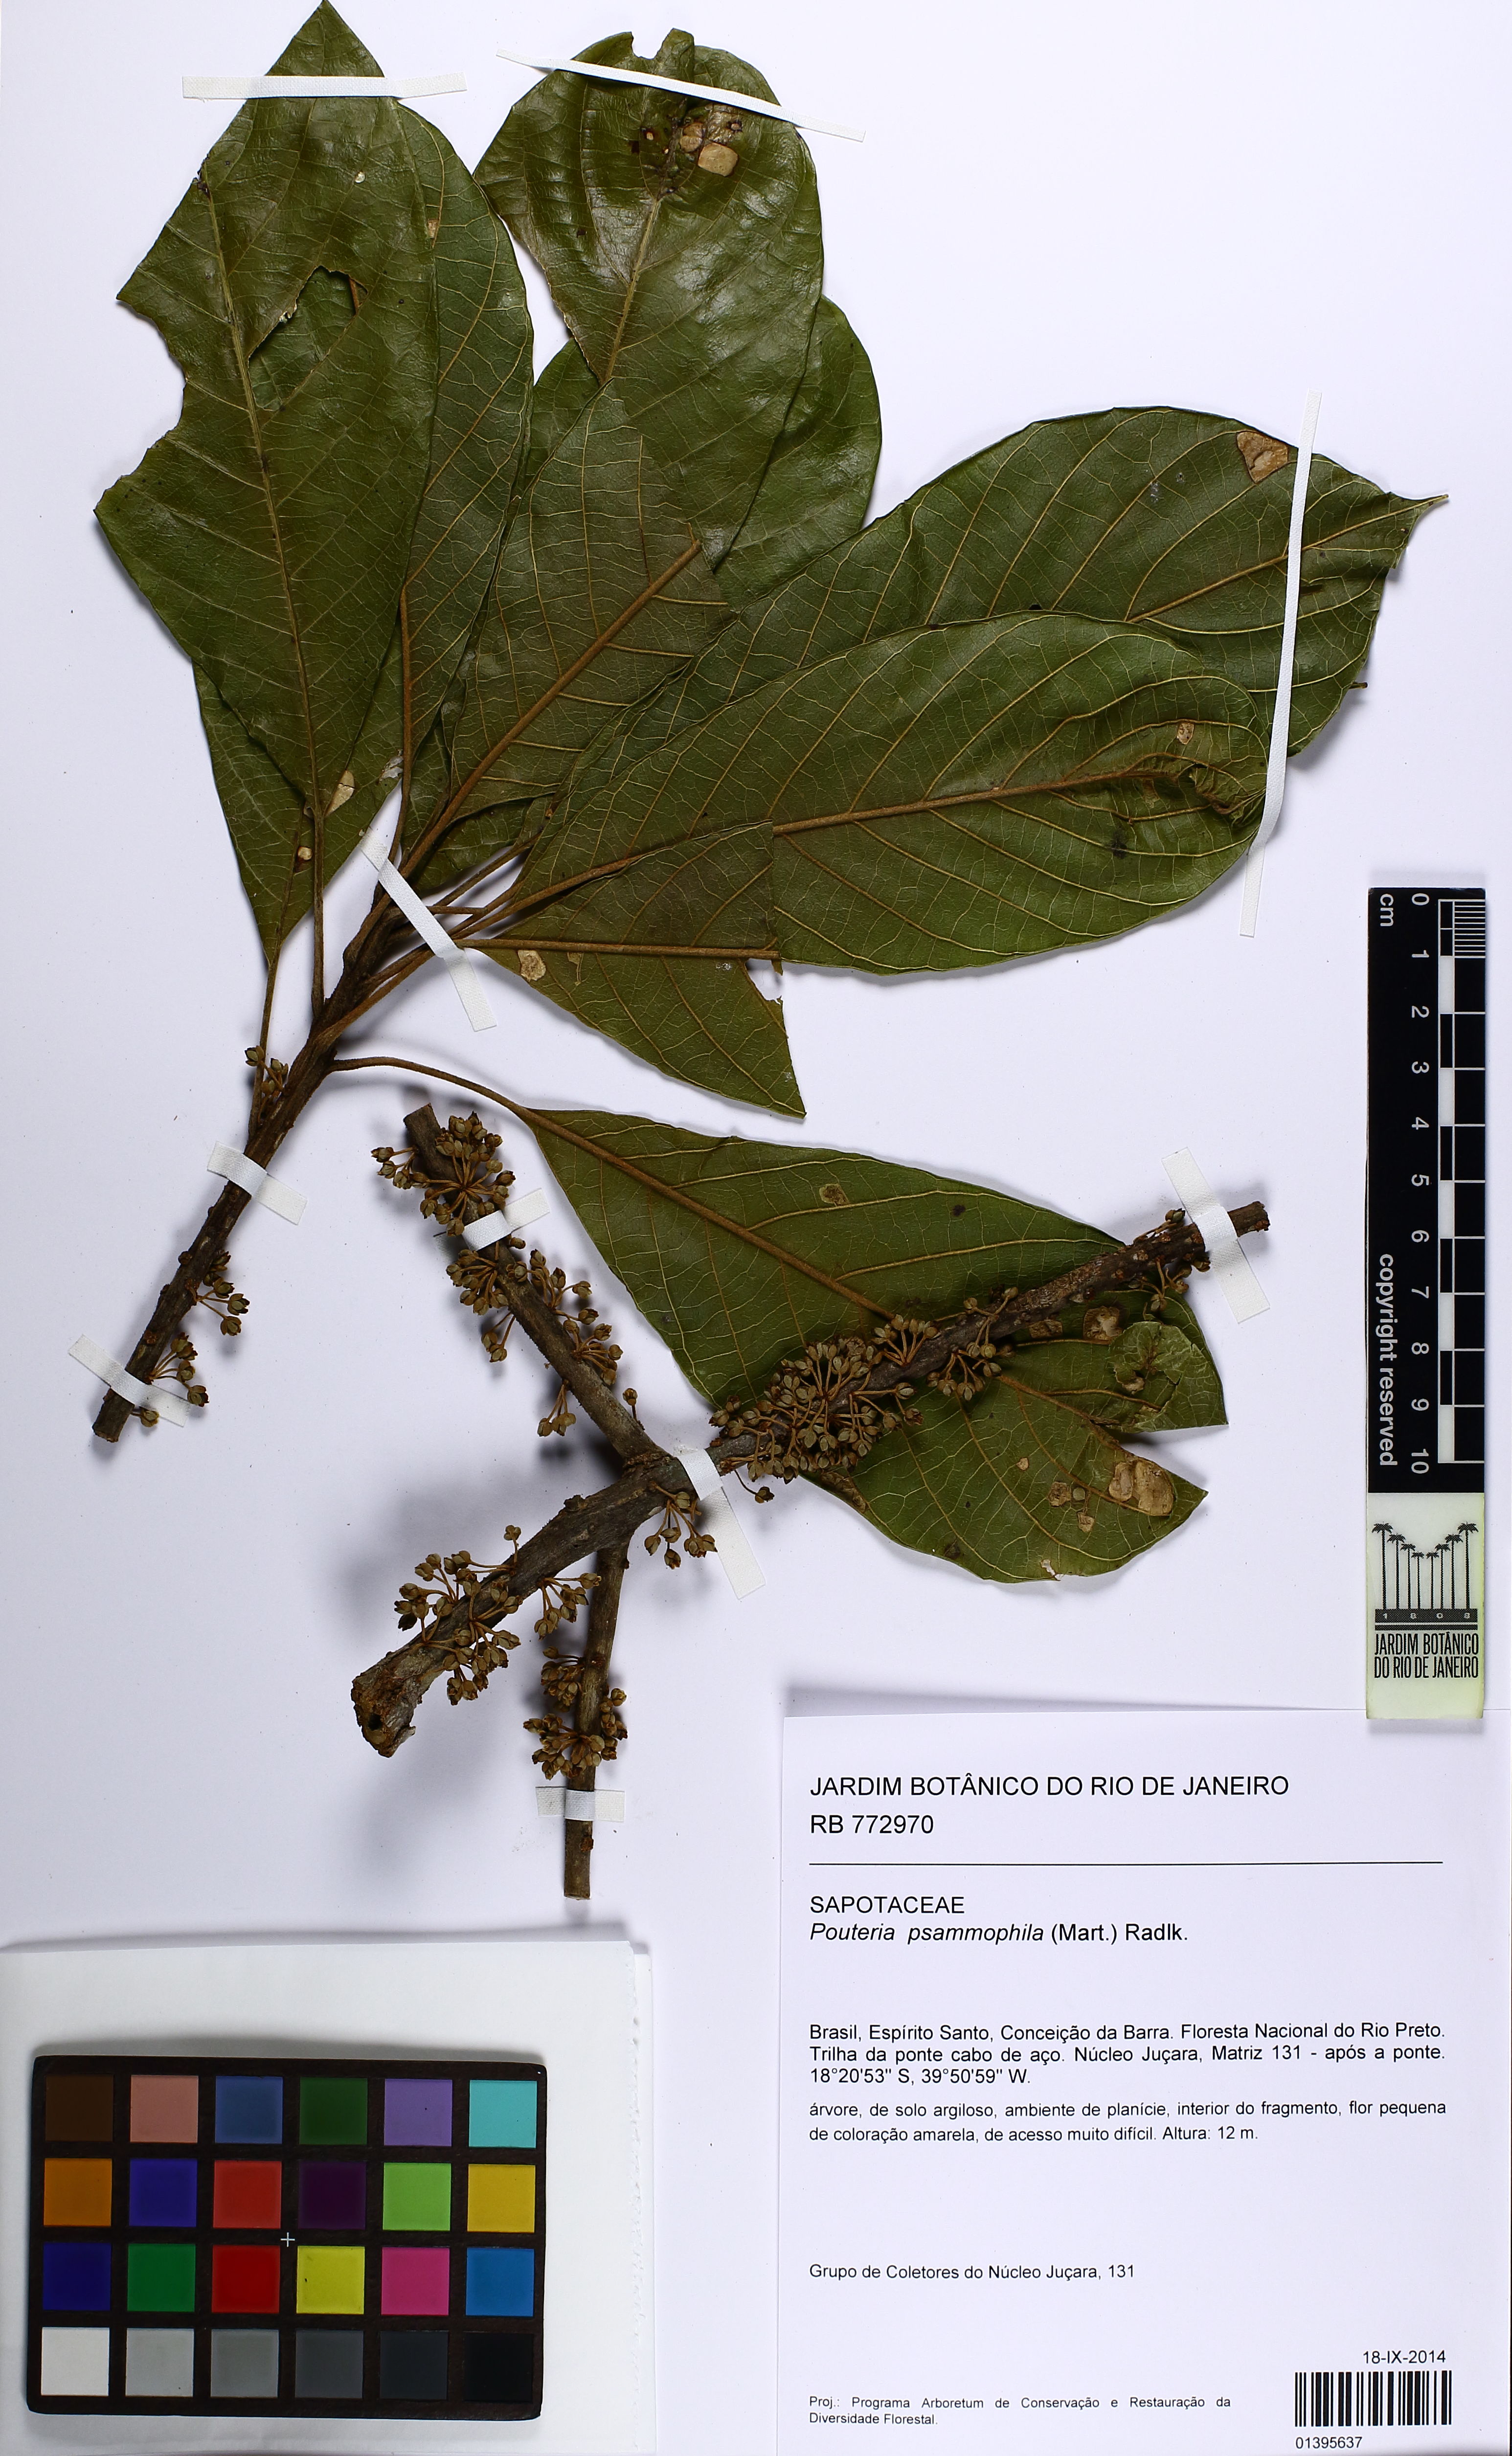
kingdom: Plantae
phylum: Tracheophyta
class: Magnoliopsida
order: Ericales
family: Sapotaceae
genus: Pouteria
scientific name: Pouteria psammophila
